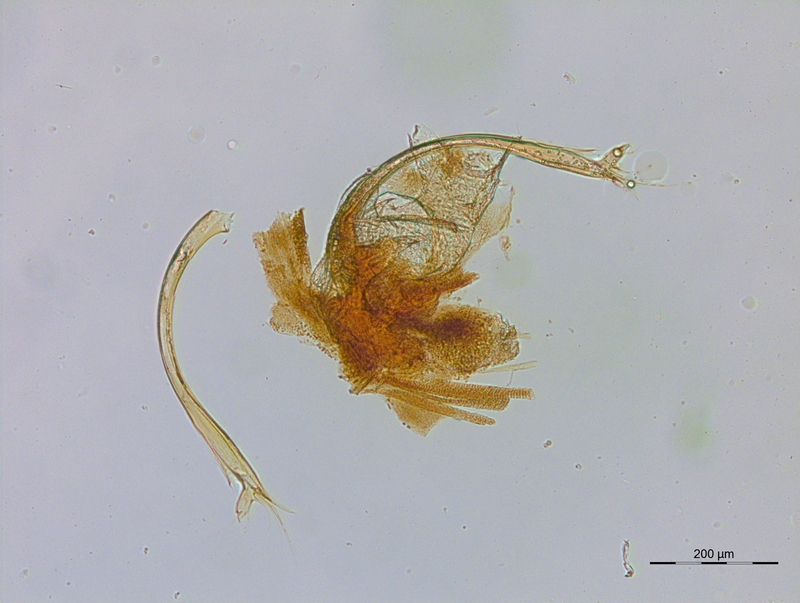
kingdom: Animalia
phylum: Arthropoda
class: Diplopoda
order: Julida
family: Blaniulidae
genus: Blaniulus
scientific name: Blaniulus guttulatus
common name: Spotted snake millipede
